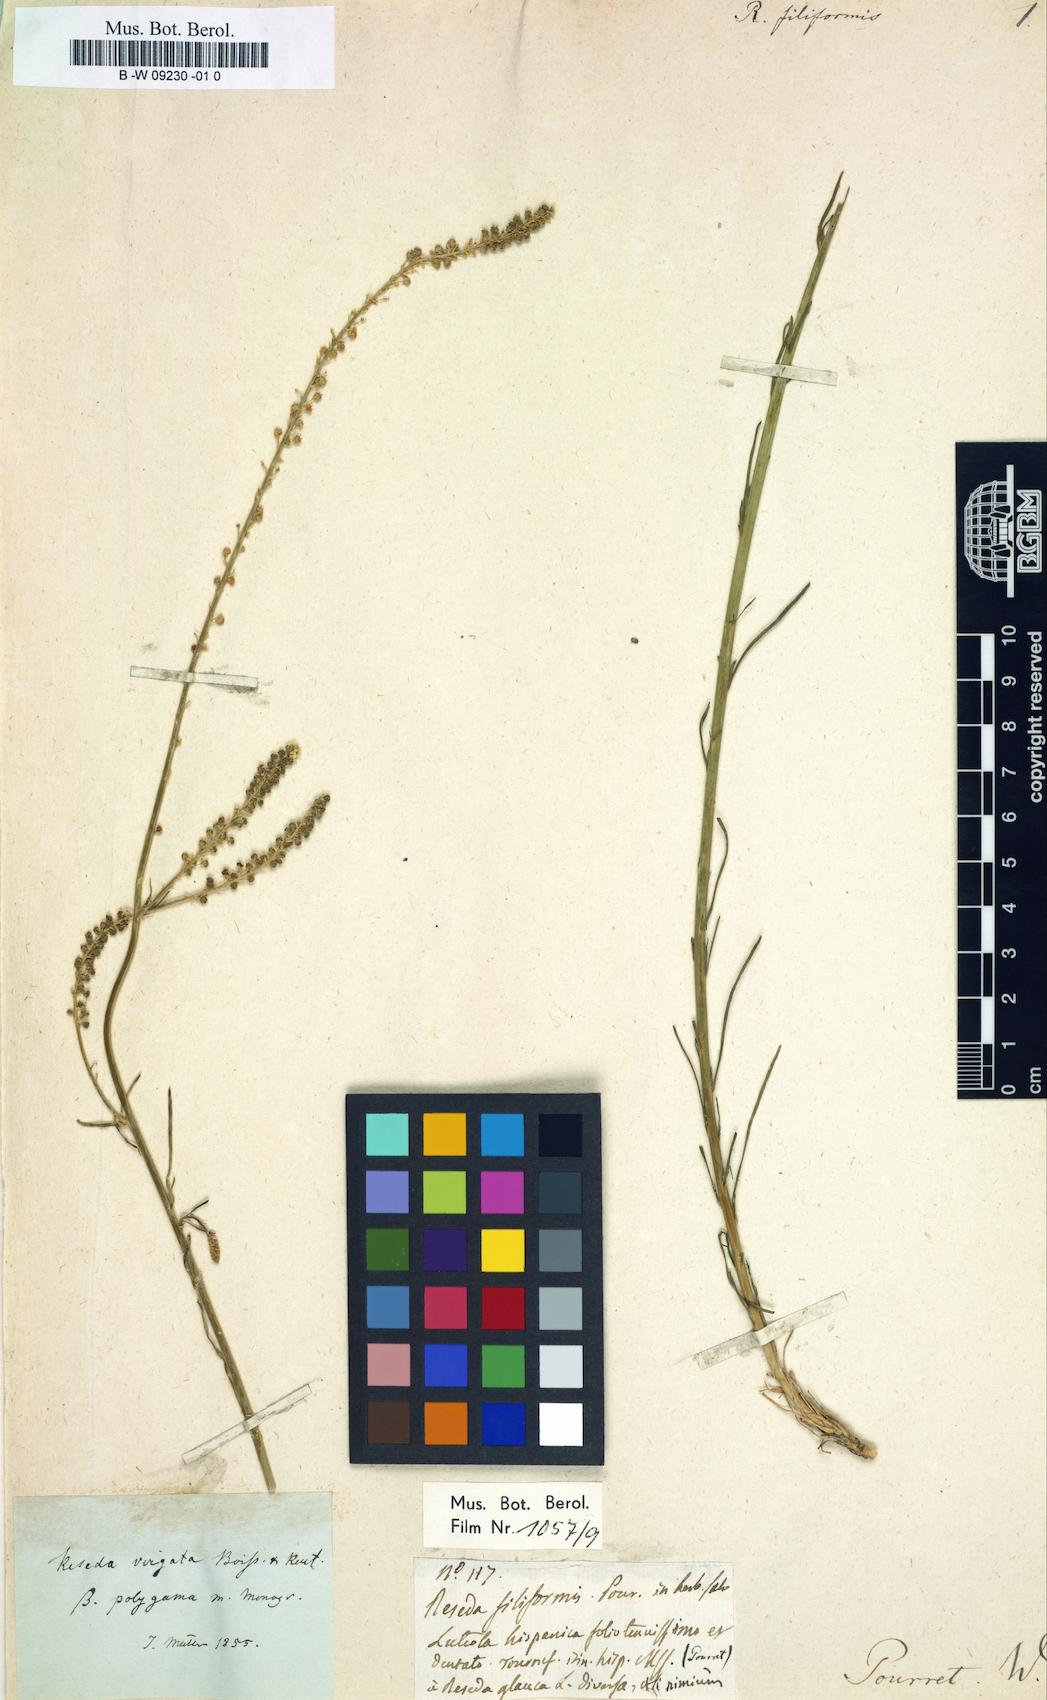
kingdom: Plantae
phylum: Tracheophyta
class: Magnoliopsida
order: Brassicales
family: Resedaceae
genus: Reseda
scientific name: Reseda virgata
